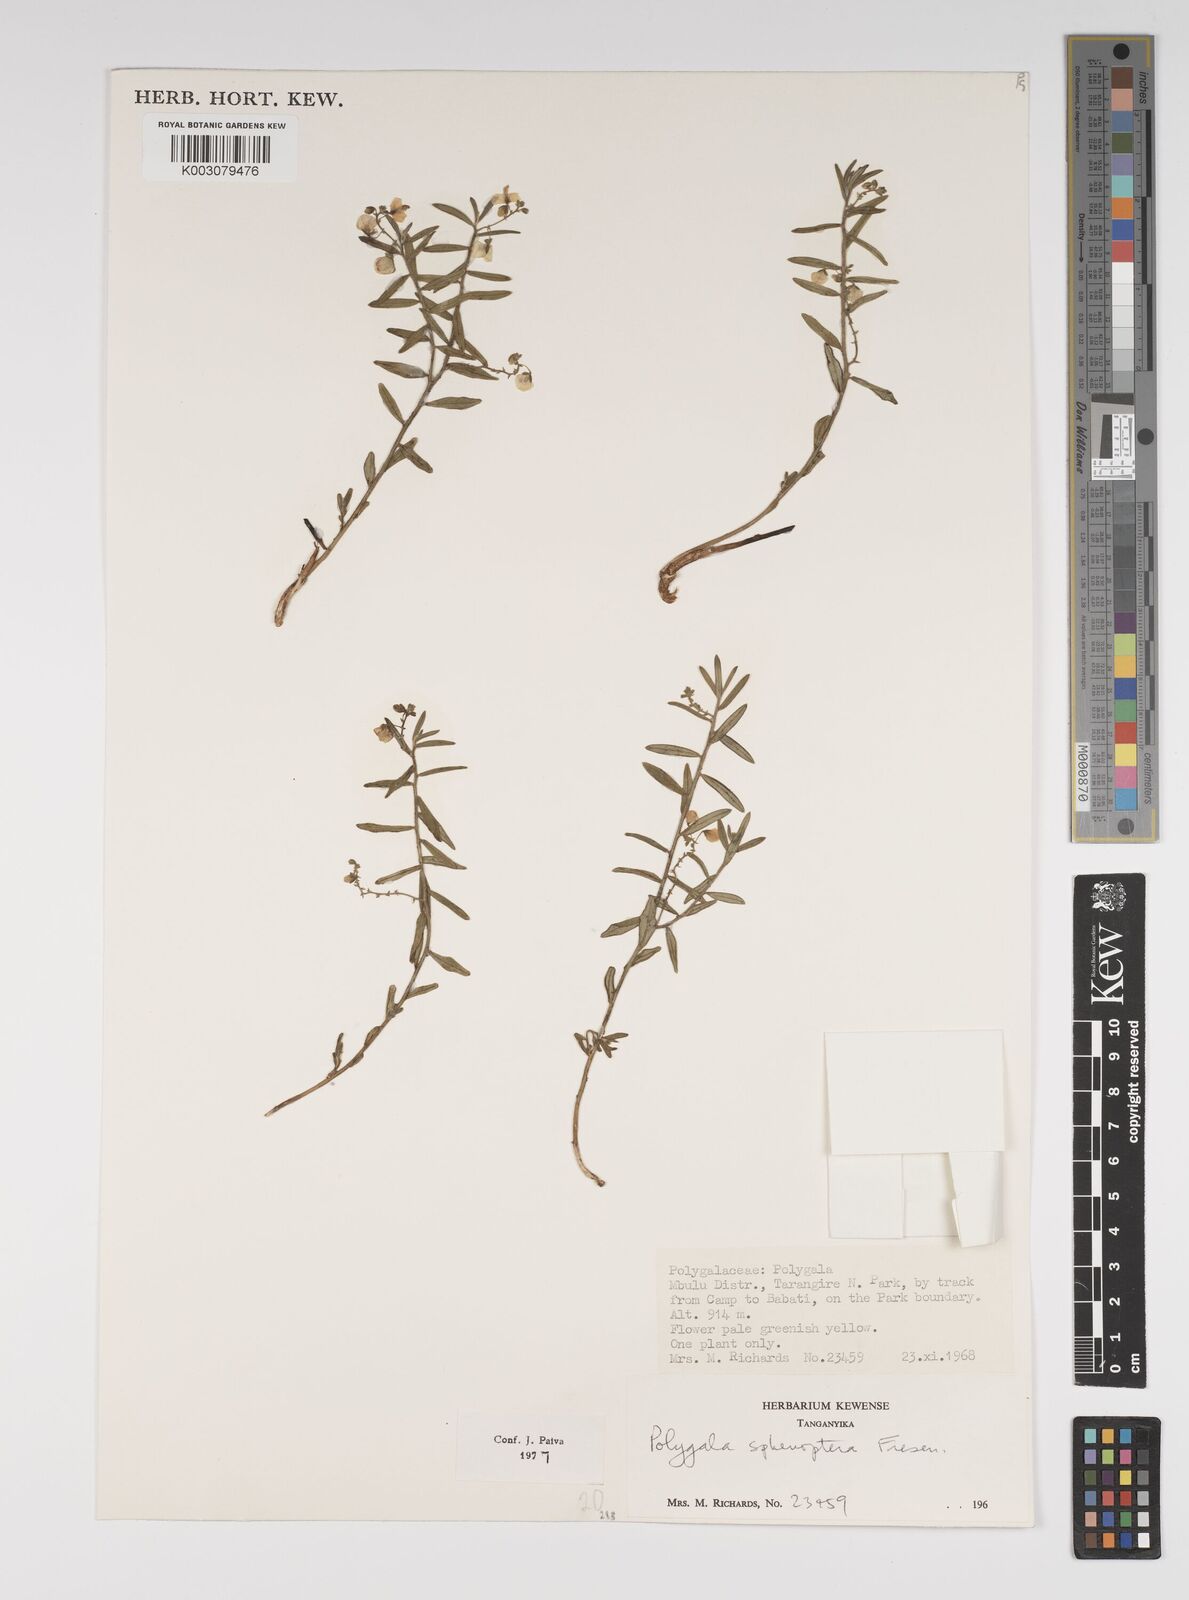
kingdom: Plantae
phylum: Tracheophyta
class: Magnoliopsida
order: Fabales
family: Polygalaceae
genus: Polygala
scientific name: Polygala sphenoptera
